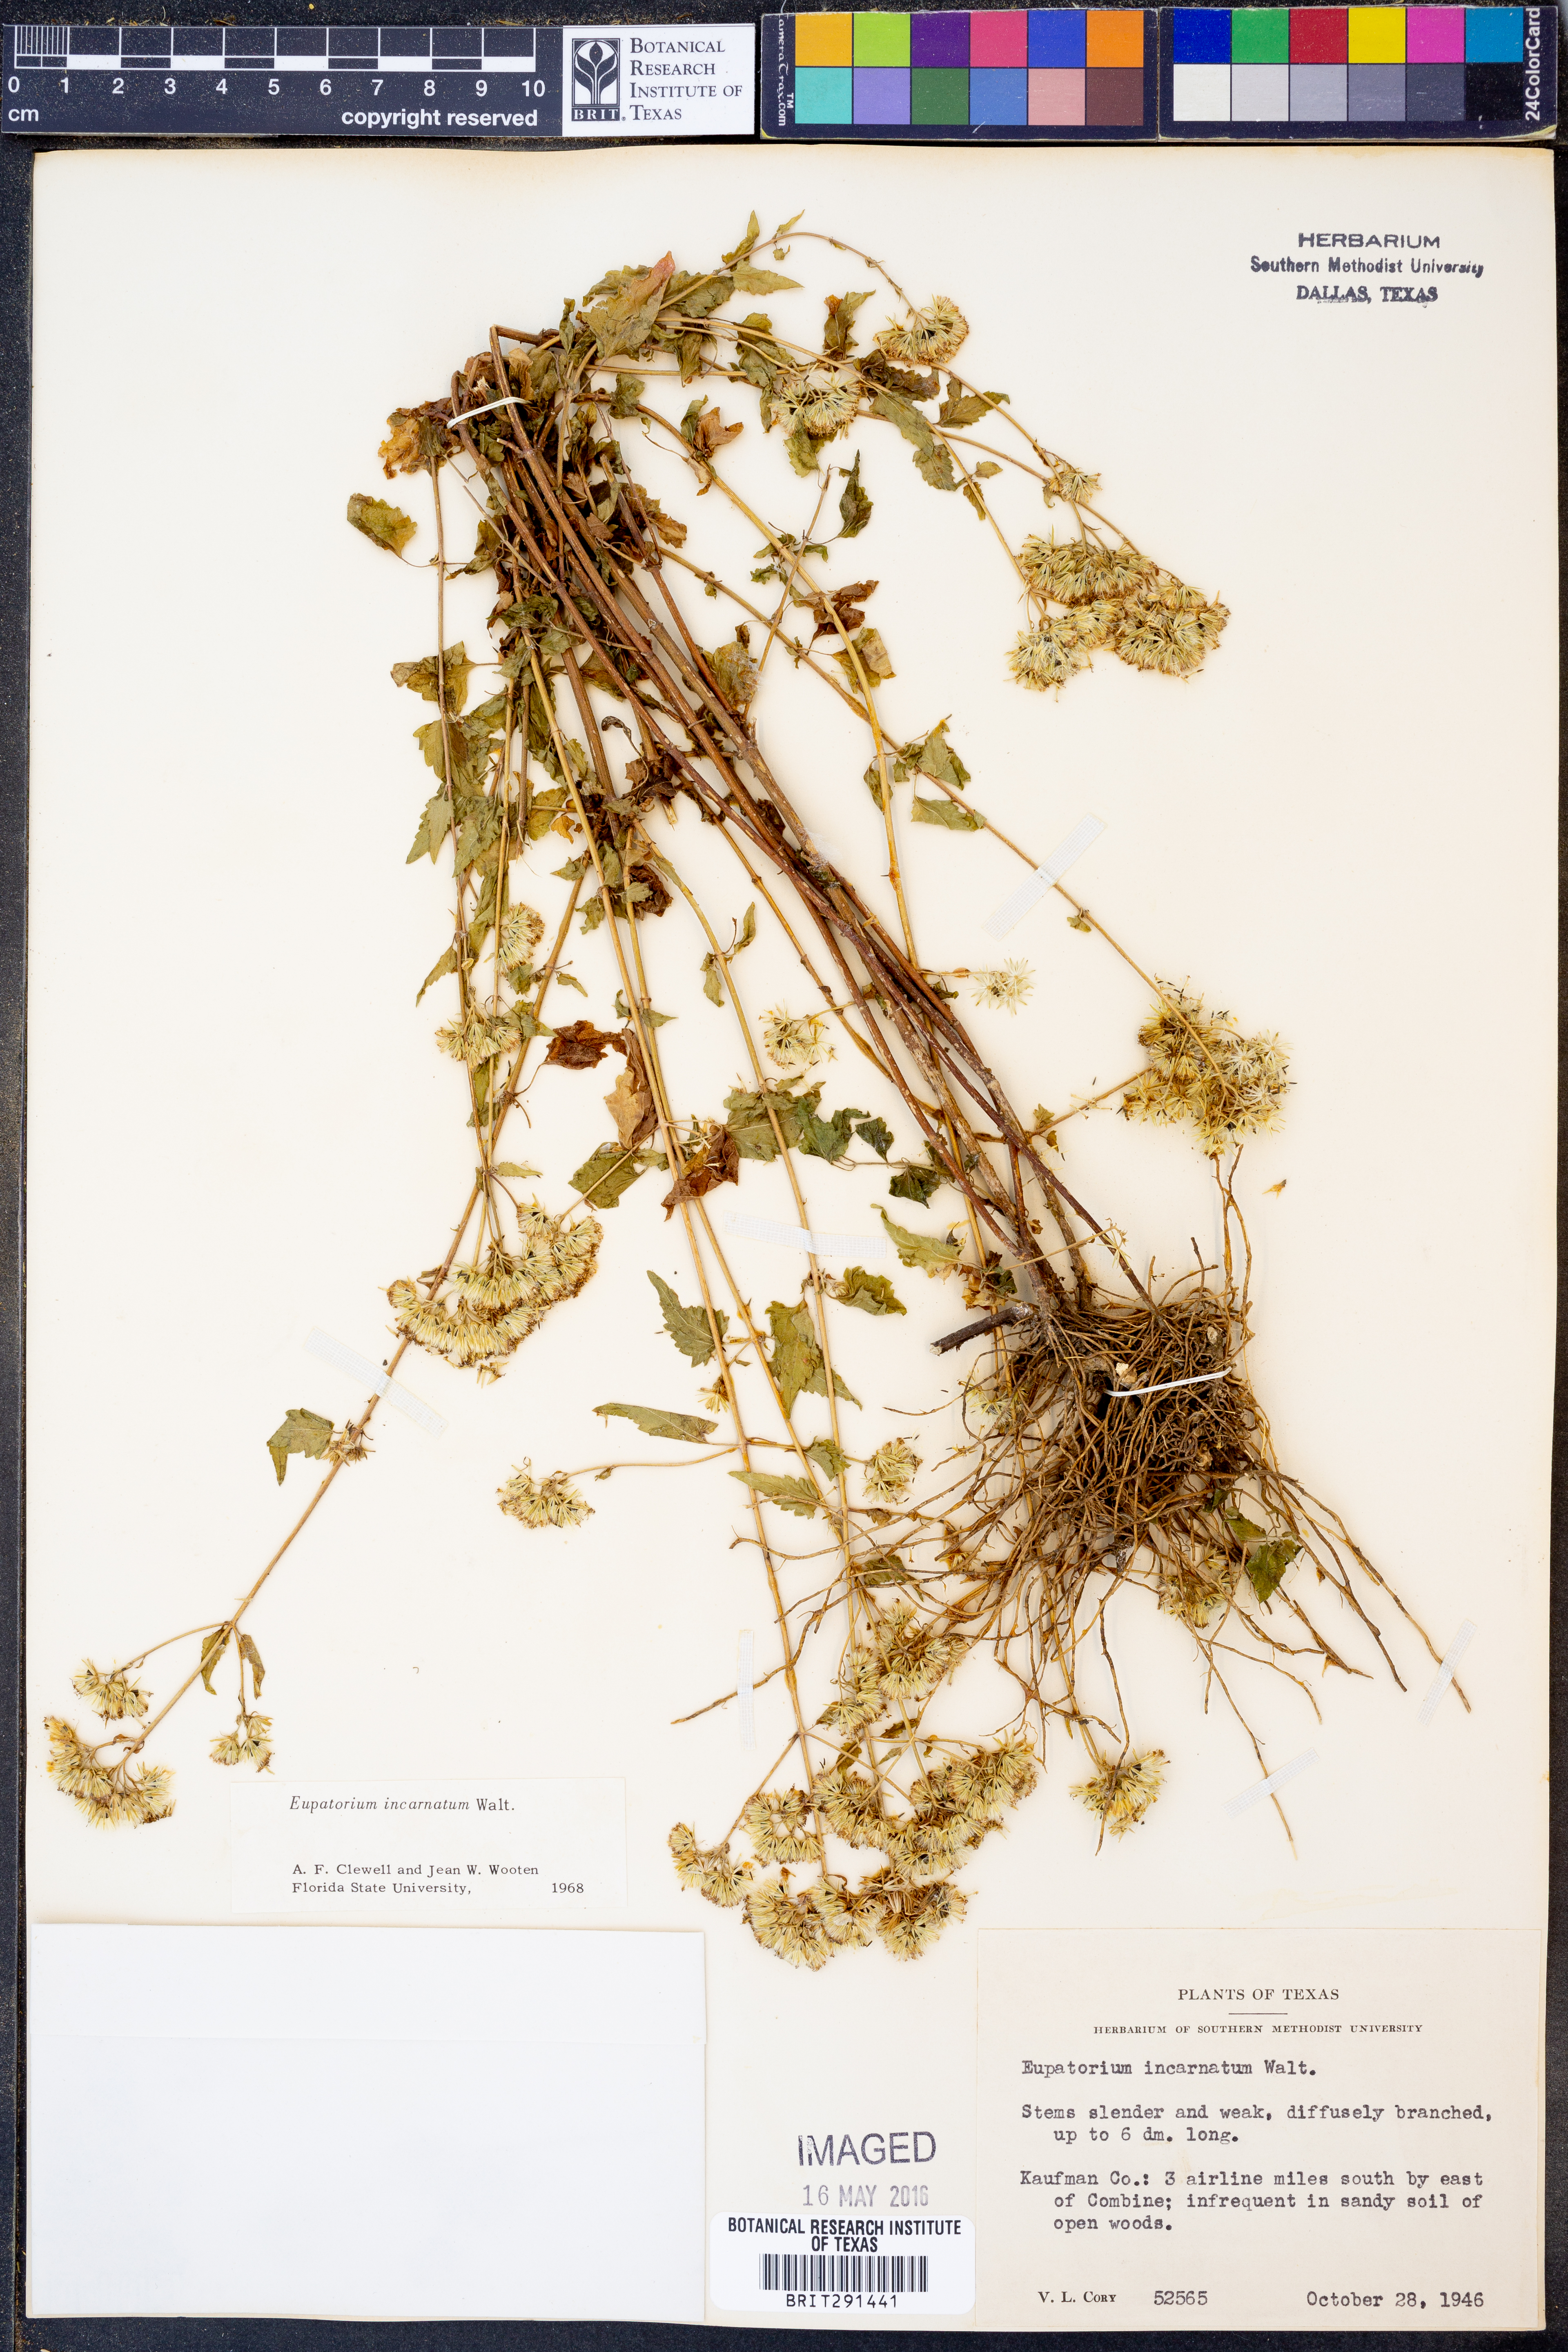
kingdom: Plantae
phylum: Tracheophyta
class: Magnoliopsida
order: Asterales
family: Asteraceae
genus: Fleischmannia
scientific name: Fleischmannia incarnata
